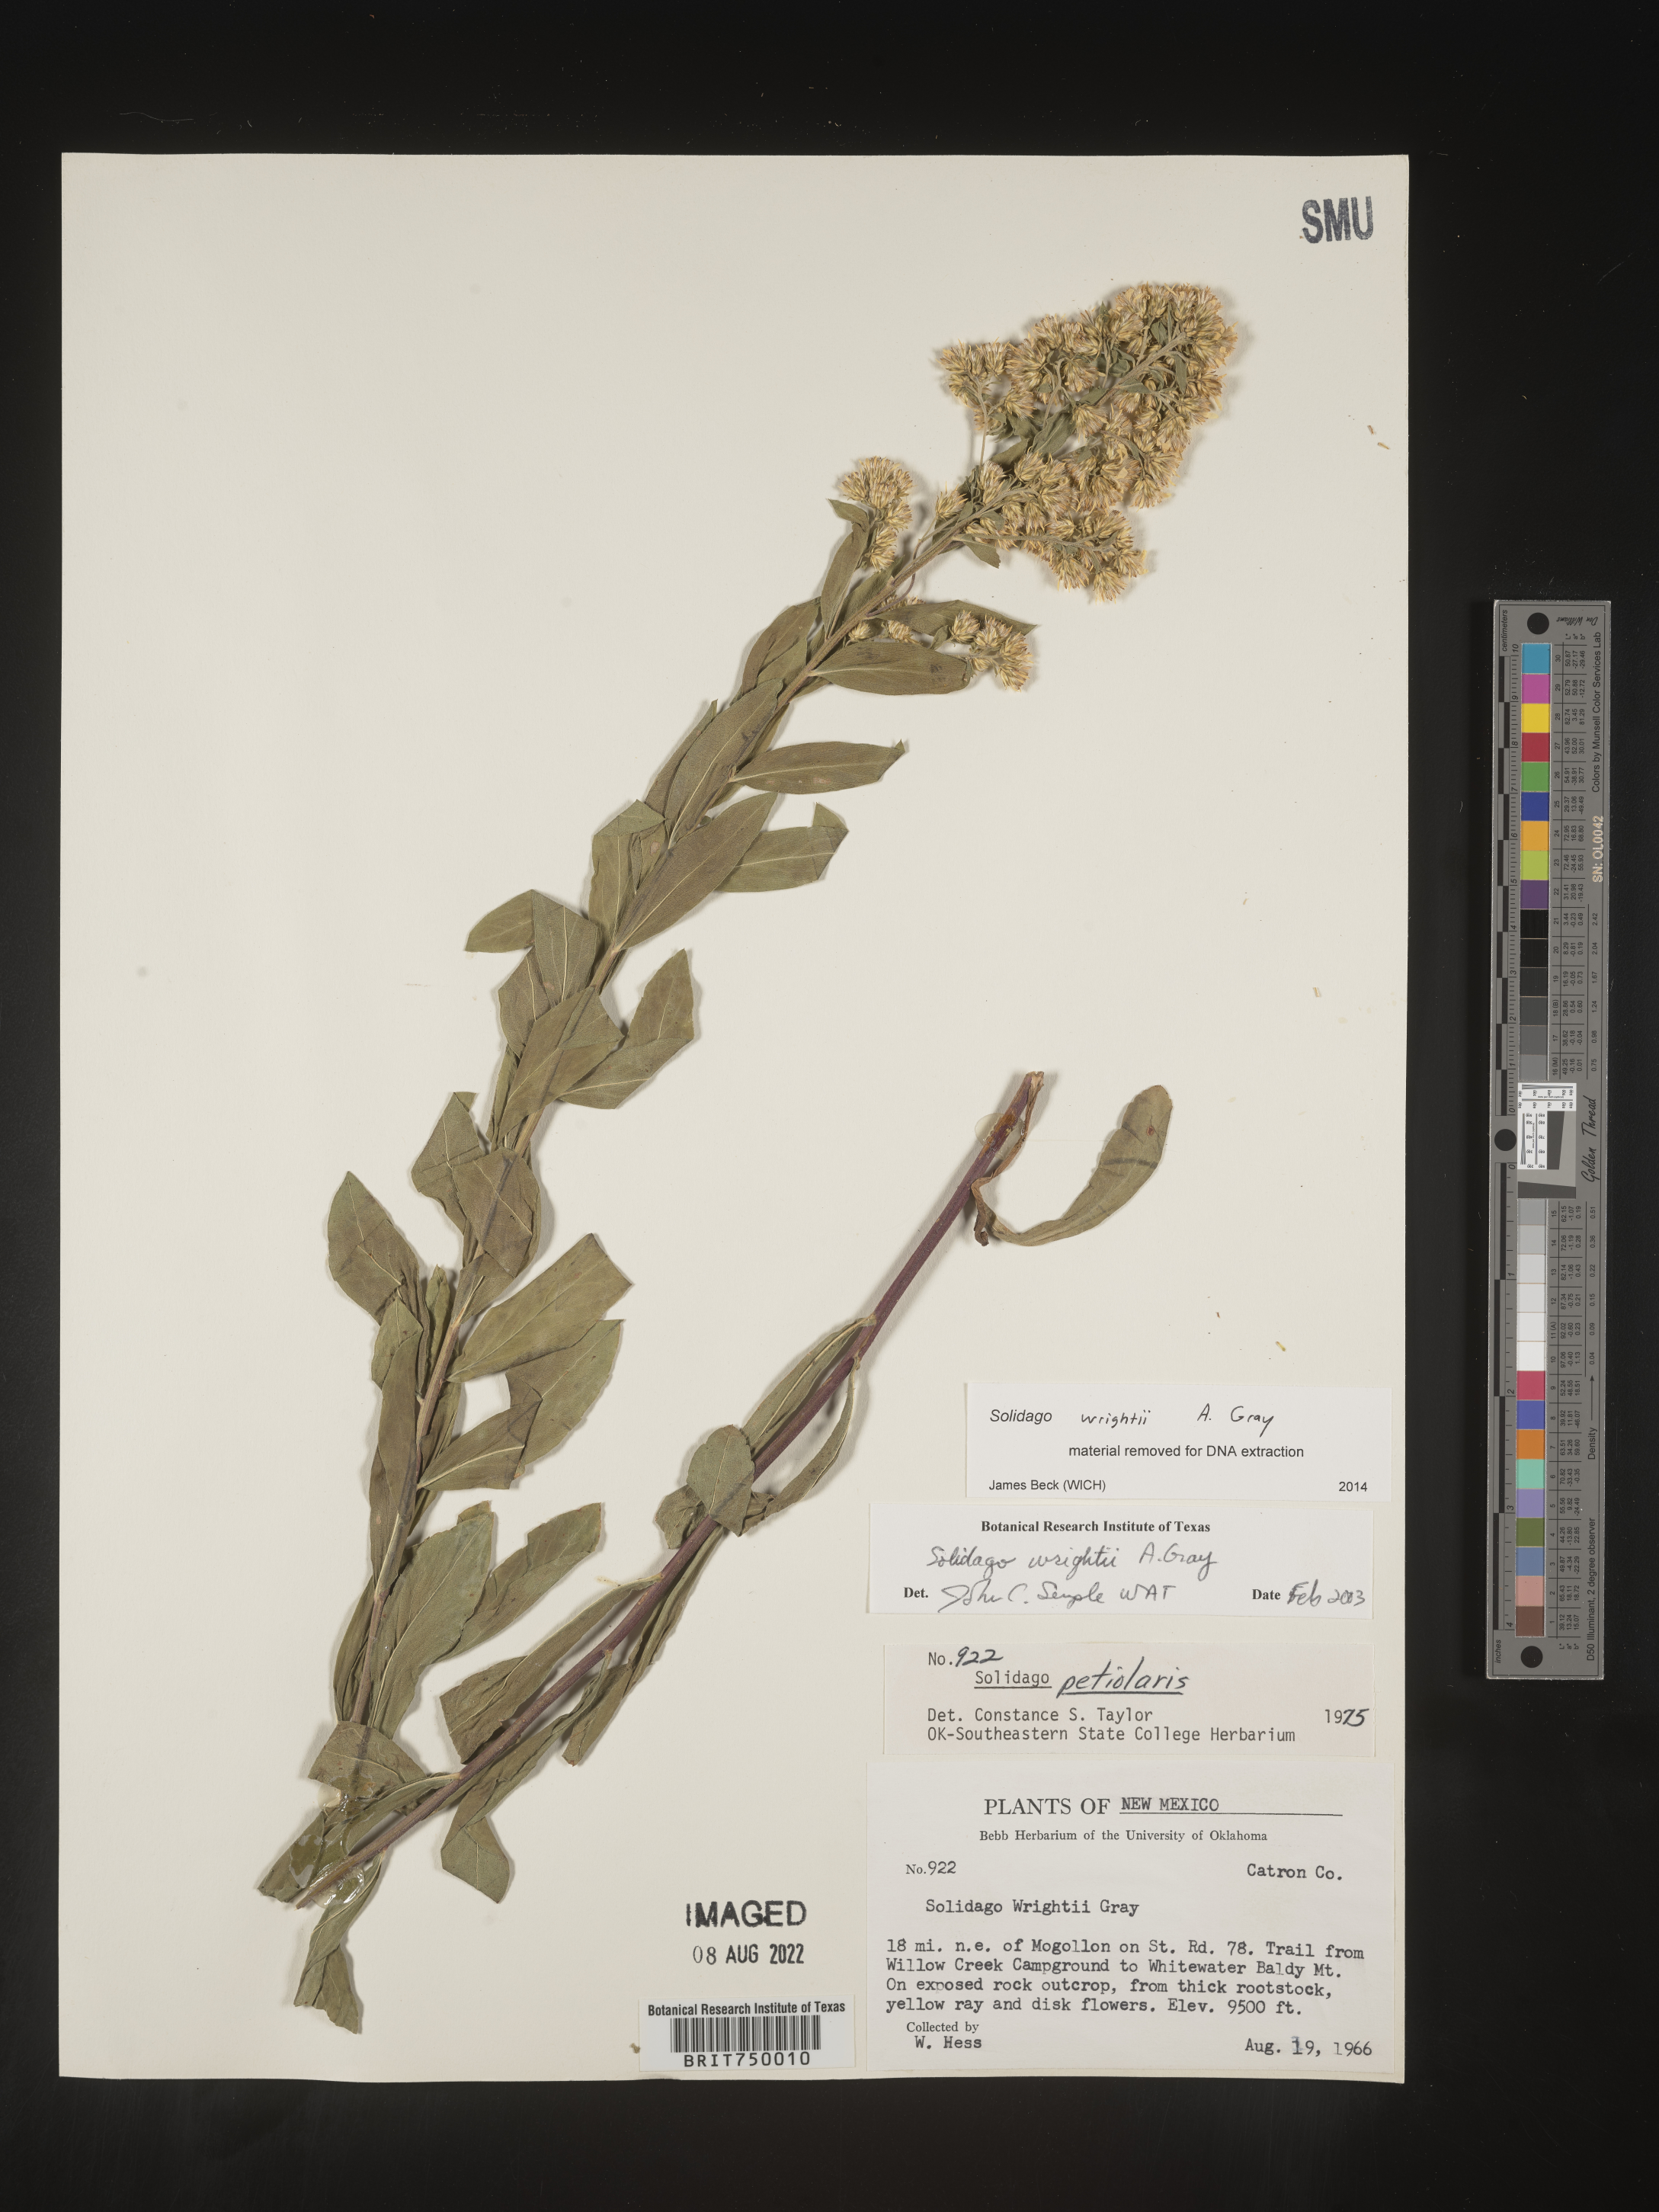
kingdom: Plantae
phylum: Tracheophyta
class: Magnoliopsida
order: Asterales
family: Asteraceae
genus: Solidago
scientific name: Solidago wrightii
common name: Wright's goldenrod
